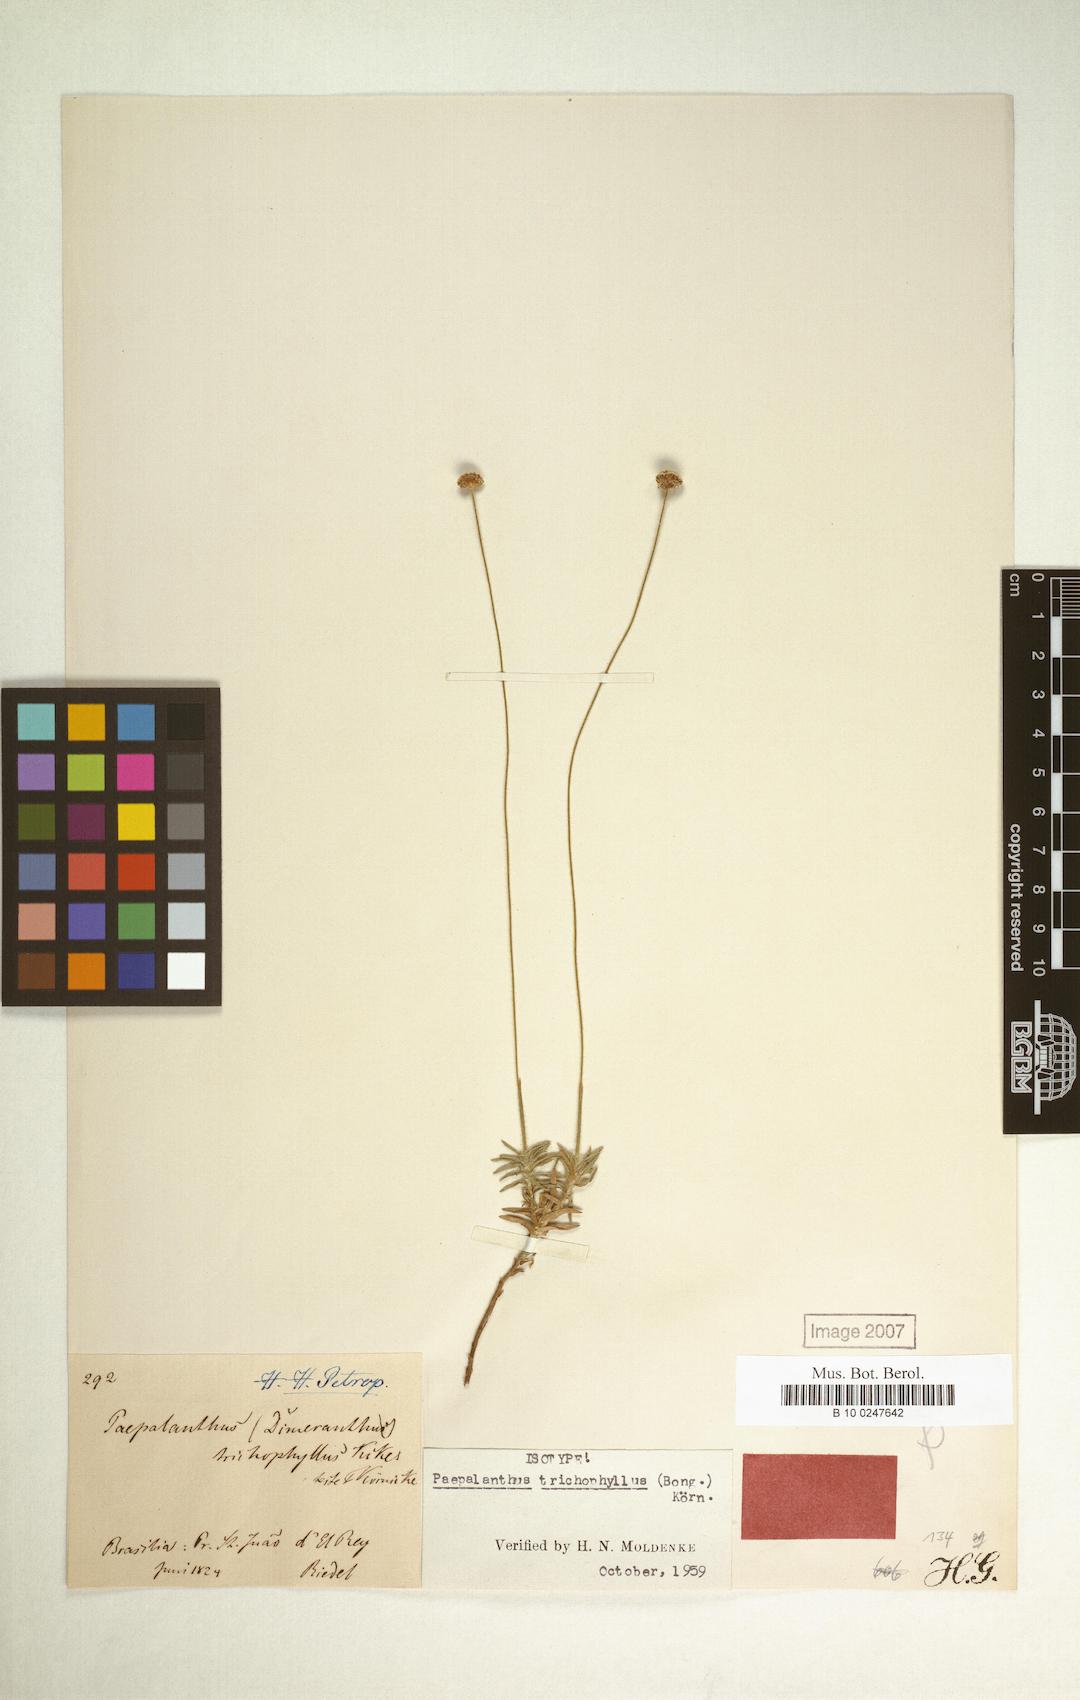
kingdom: Plantae
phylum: Tracheophyta
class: Liliopsida
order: Poales
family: Eriocaulaceae
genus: Paepalanthus
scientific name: Paepalanthus trichophyllus
